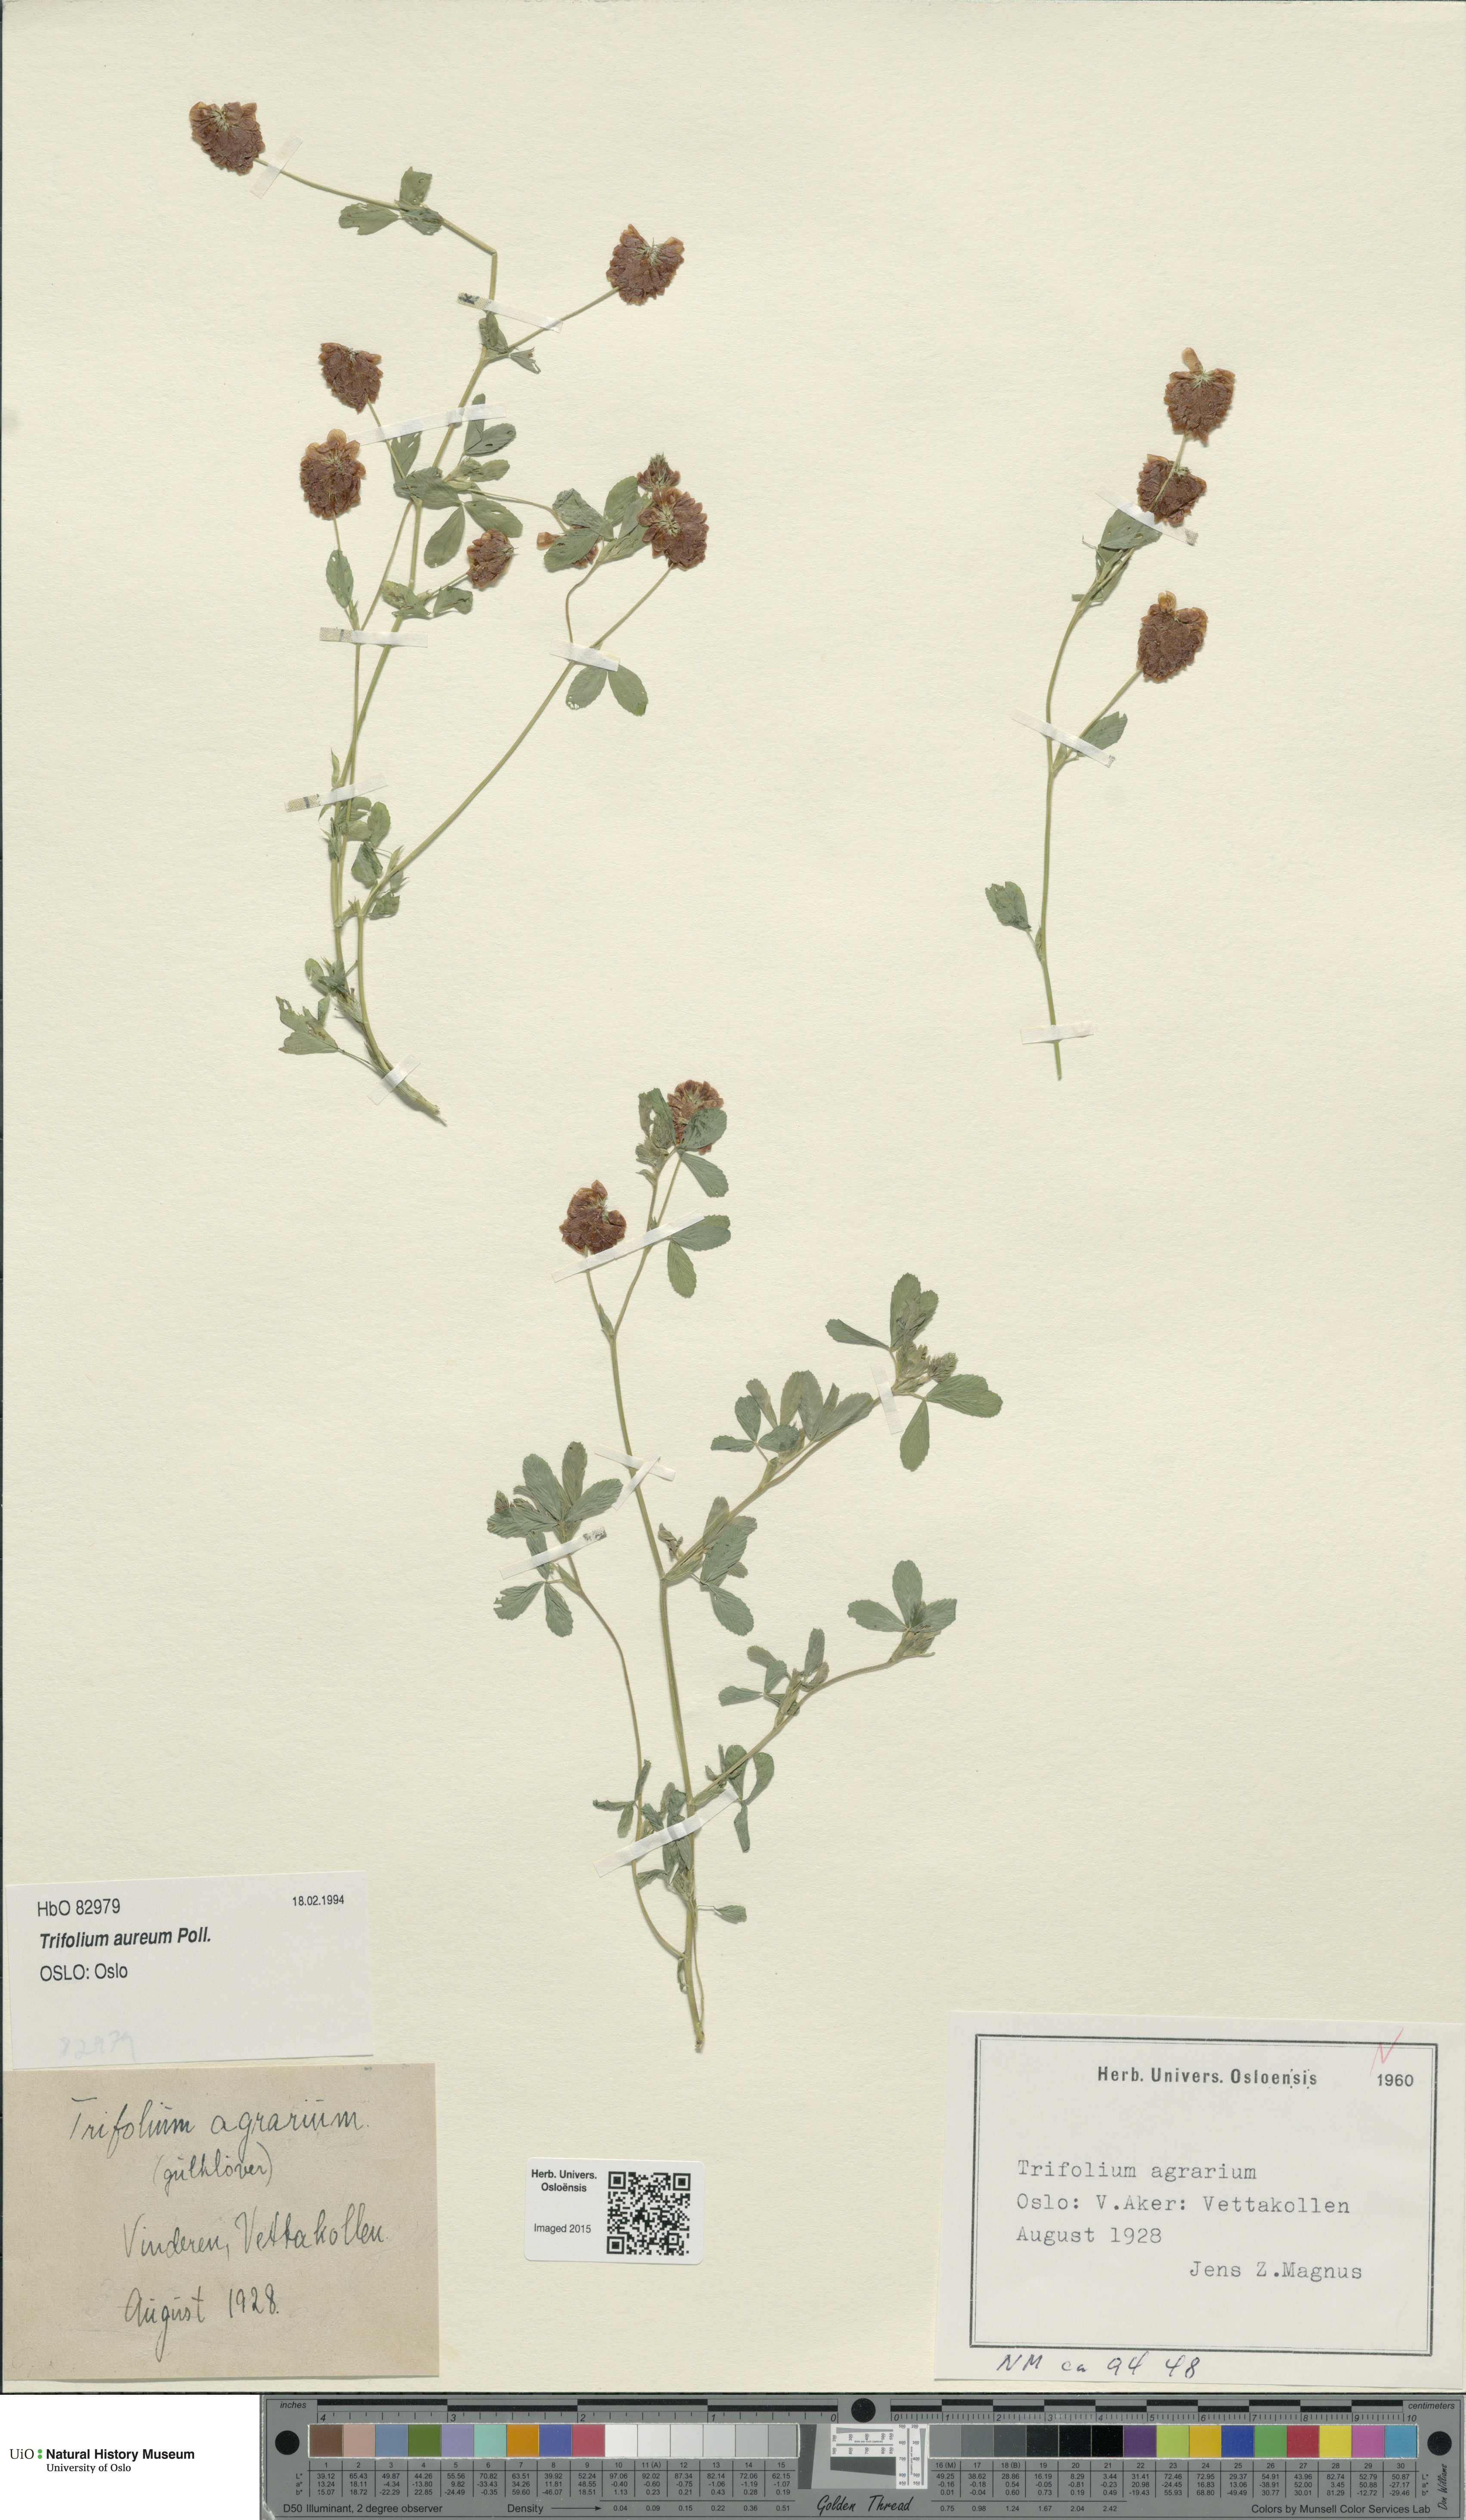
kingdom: Plantae
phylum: Tracheophyta
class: Magnoliopsida
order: Fabales
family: Fabaceae
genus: Trifolium
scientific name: Trifolium aureum
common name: Golden clover
